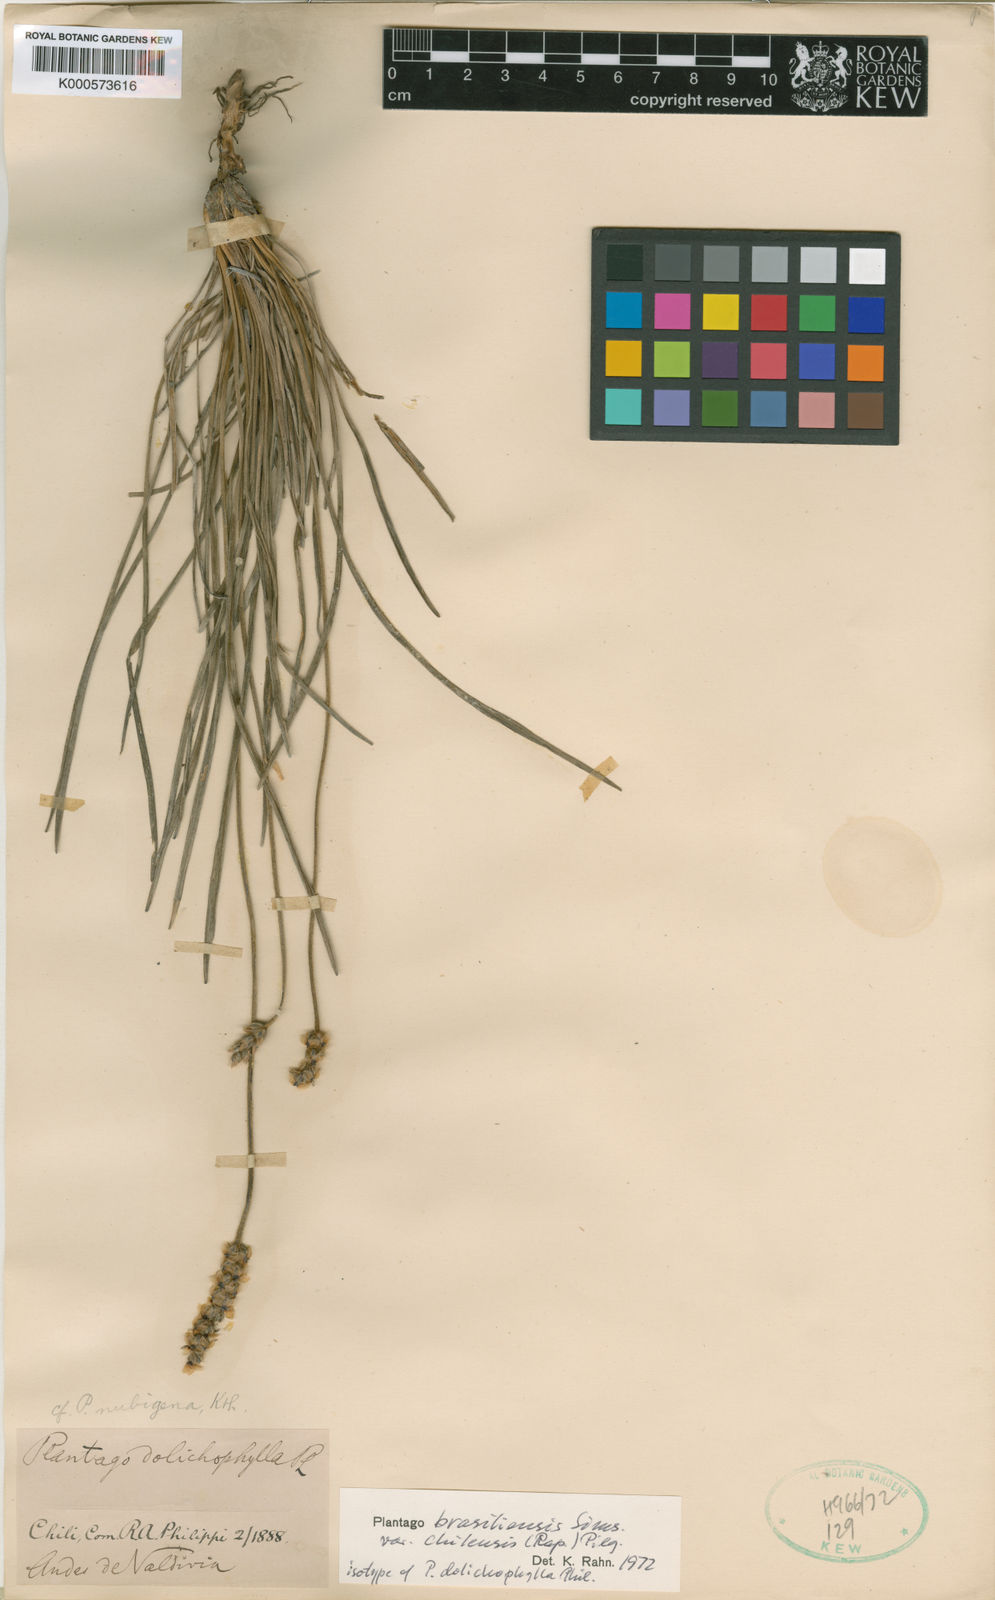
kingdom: Plantae
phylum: Tracheophyta
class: Magnoliopsida
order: Lamiales
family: Plantaginaceae
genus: Plantago
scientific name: Plantago brasiliensis
